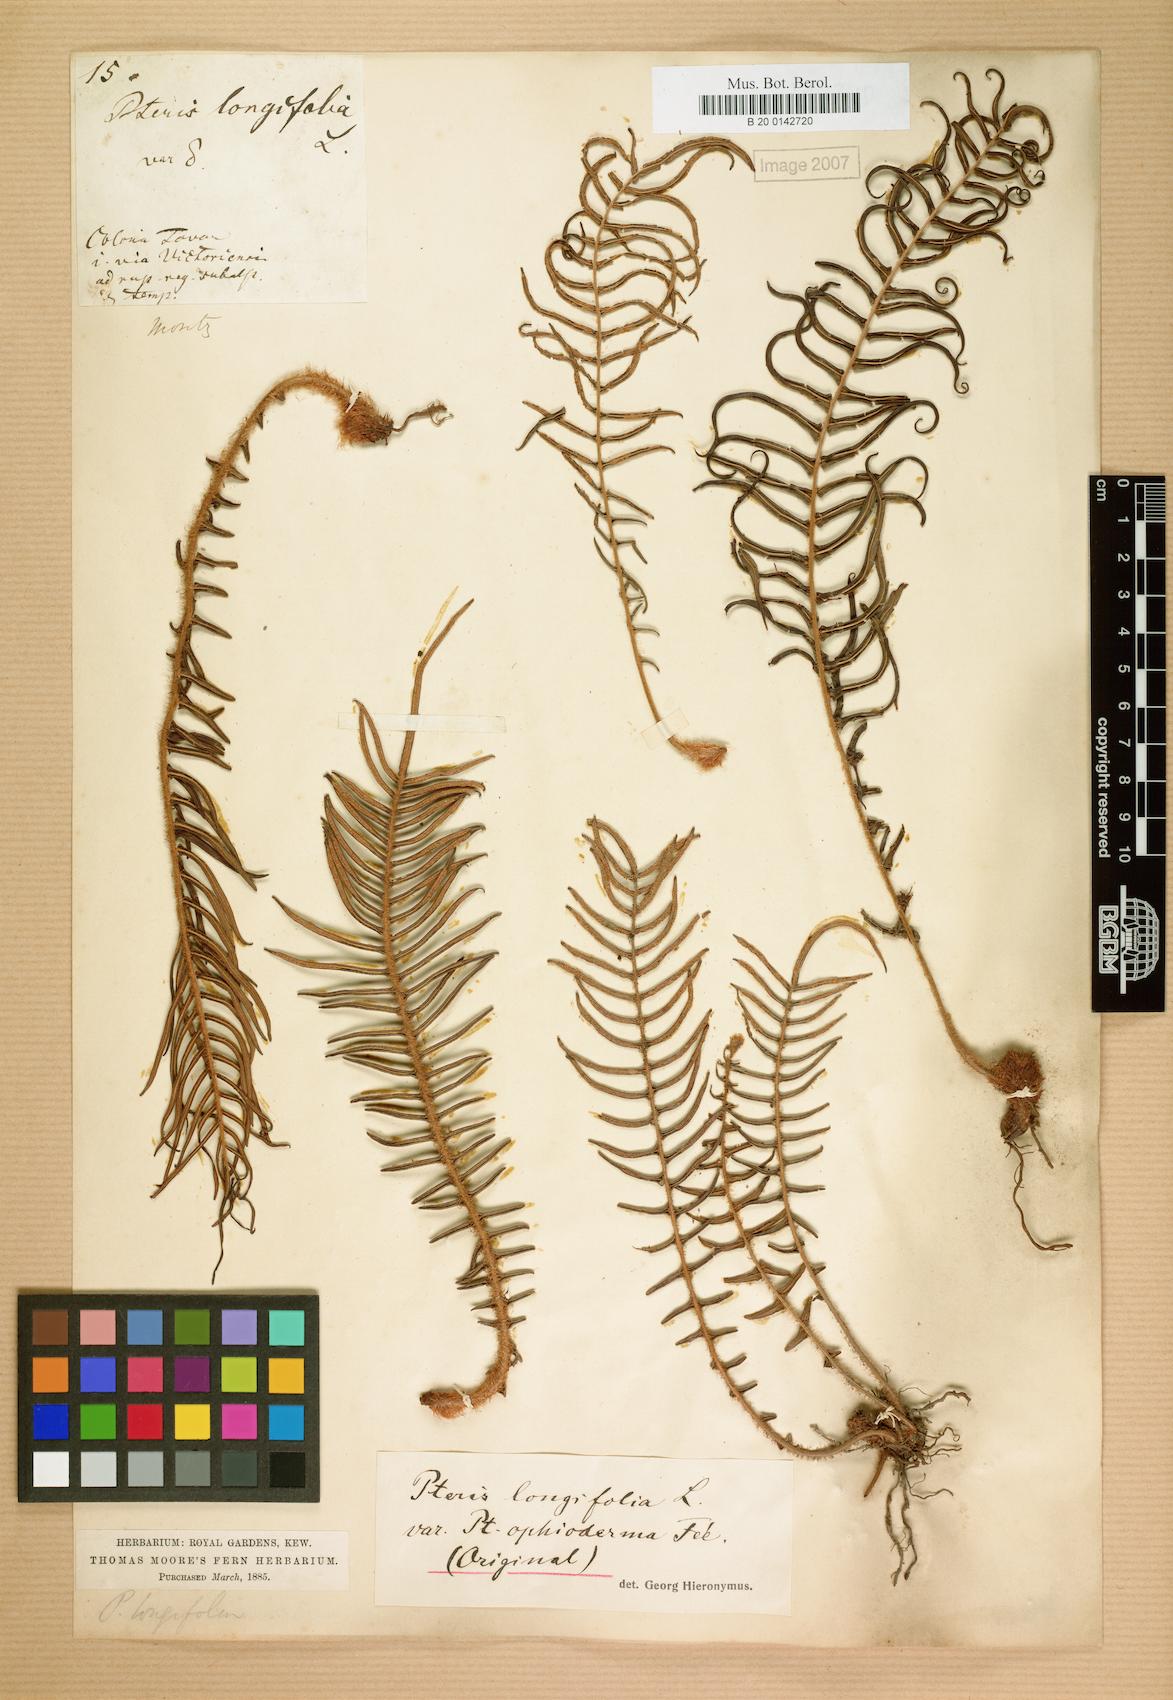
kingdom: Plantae
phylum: Tracheophyta
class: Polypodiopsida
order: Polypodiales
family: Pteridaceae
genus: Pteris
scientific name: Pteris vittata
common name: Ladder brake
